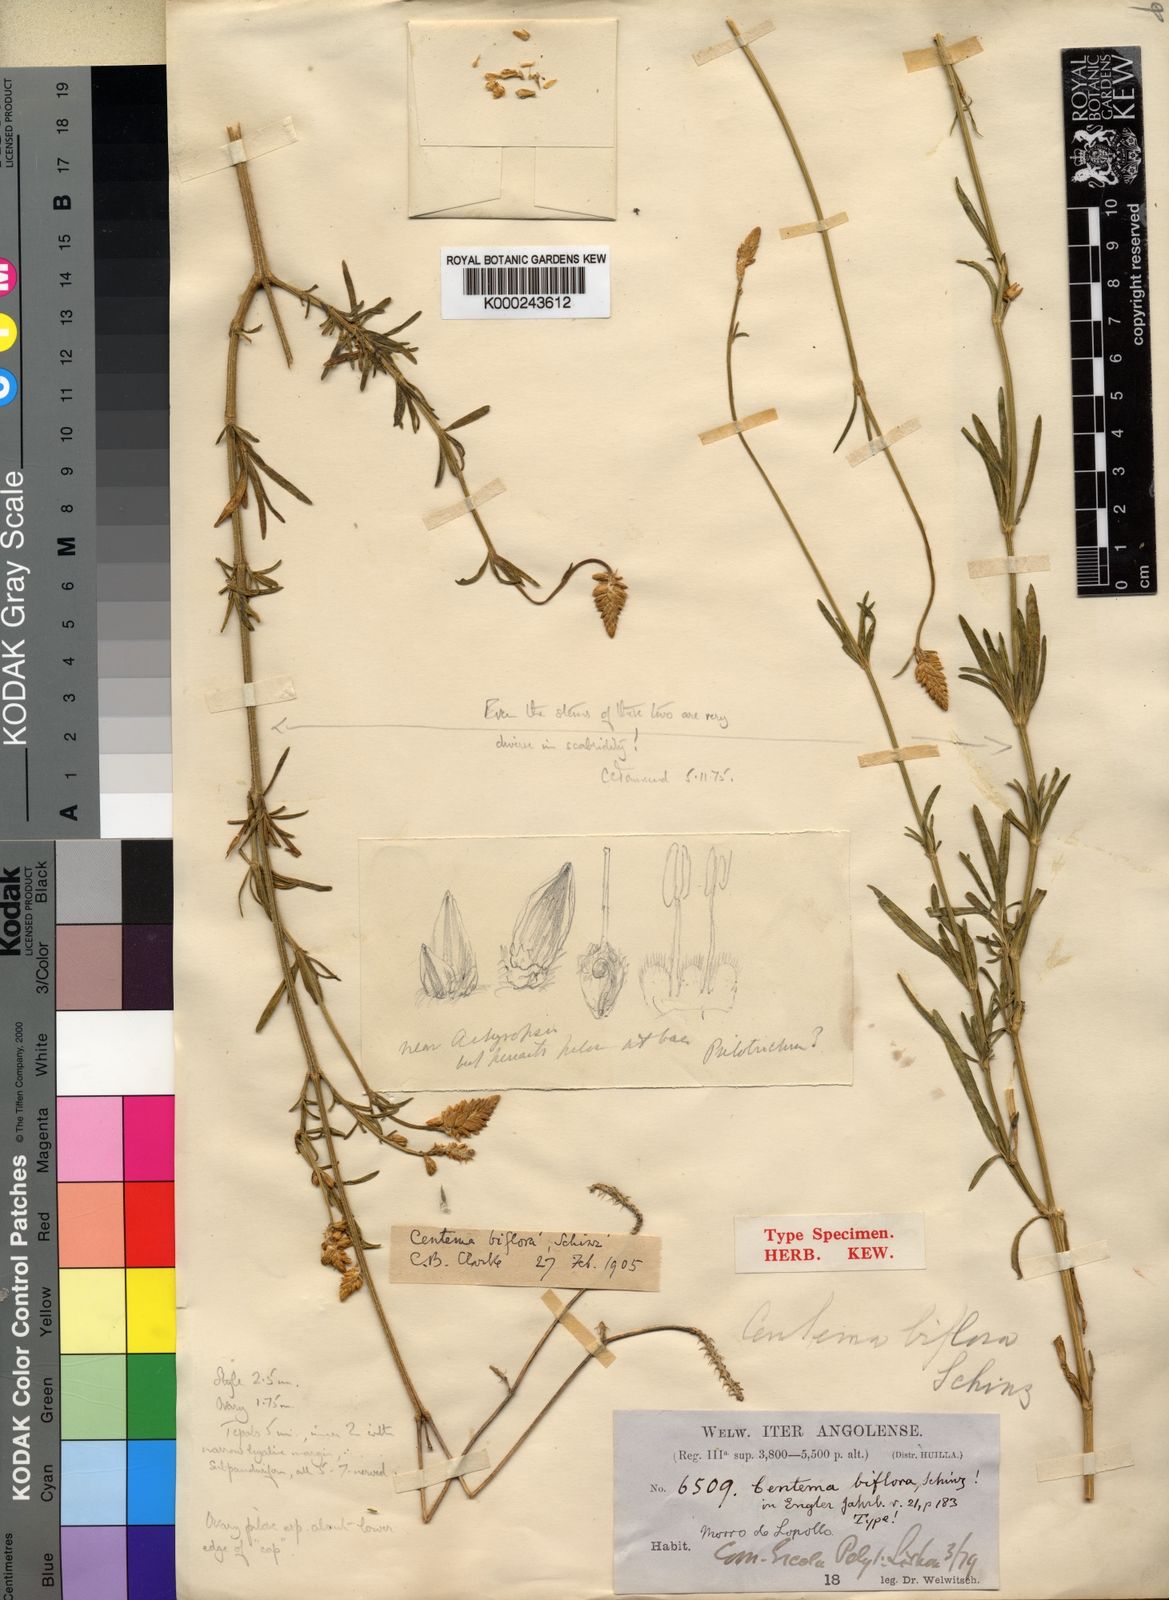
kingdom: Plantae
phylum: Tracheophyta
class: Magnoliopsida
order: Caryophyllales
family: Amaranthaceae
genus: Centemopsis
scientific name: Centemopsis biflora
